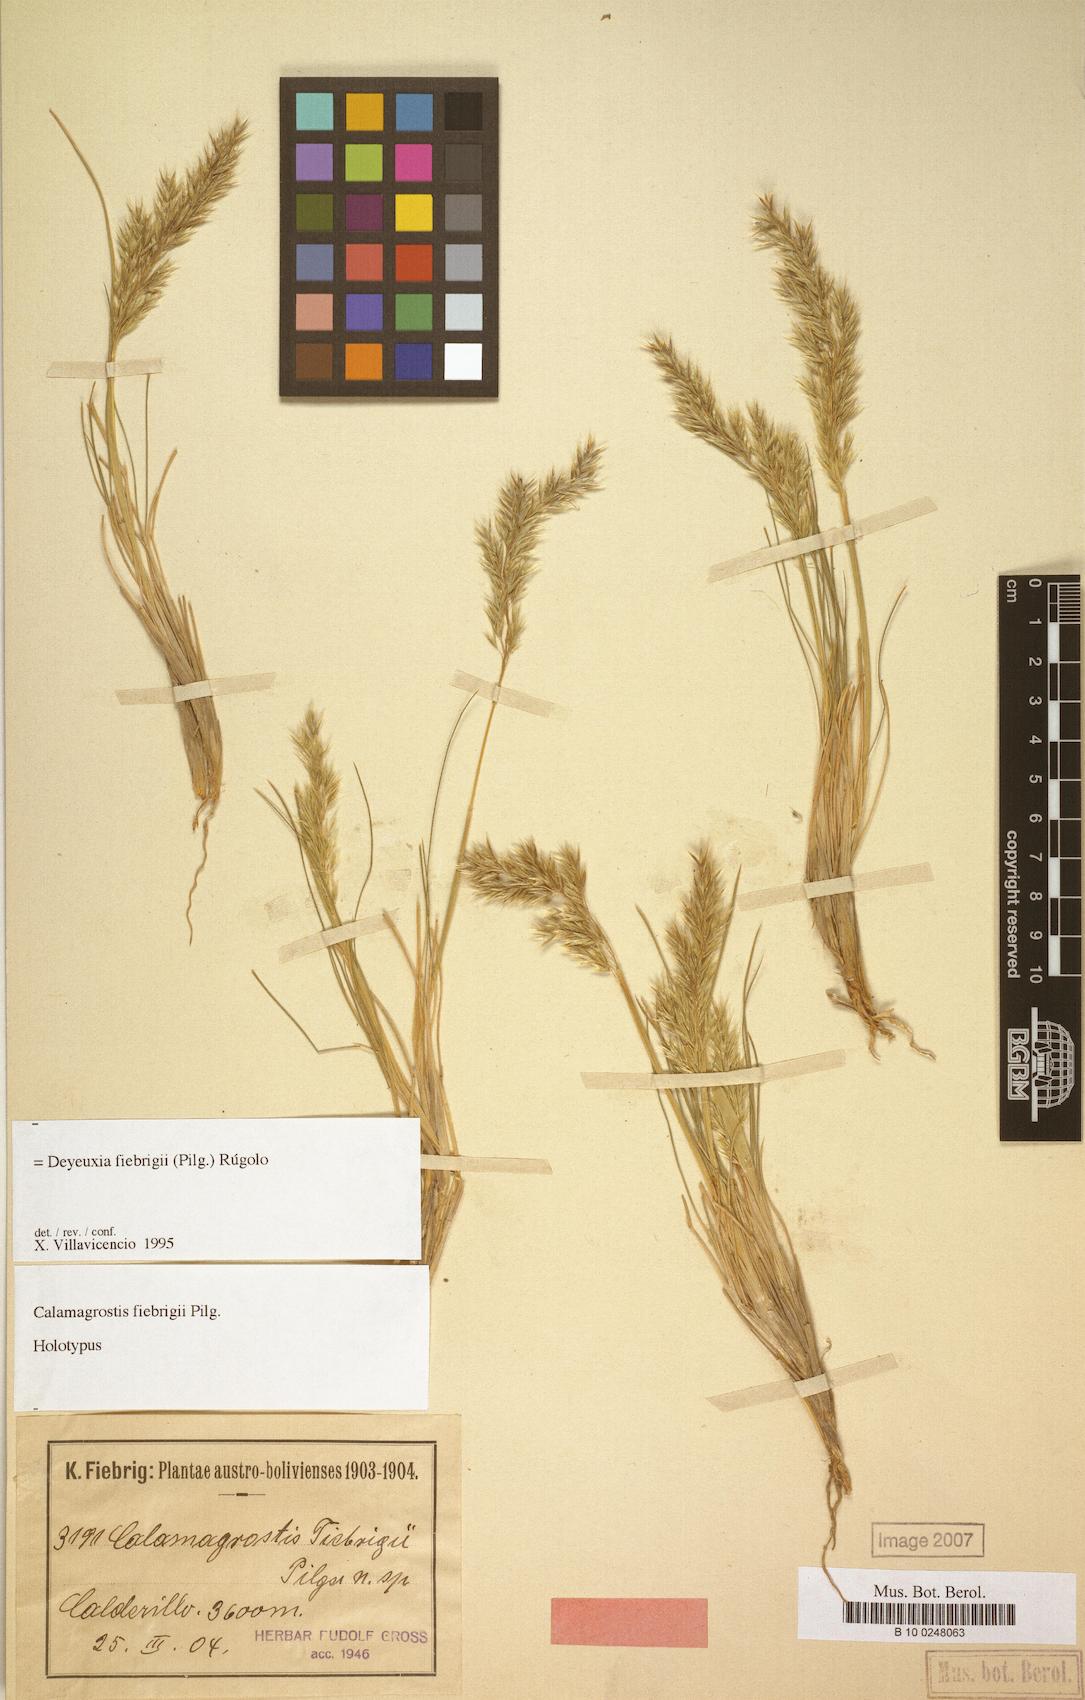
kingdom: Plantae
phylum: Tracheophyta
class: Liliopsida
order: Poales
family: Poaceae
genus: Cinnagrostis
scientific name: Cinnagrostis fiebrigii
